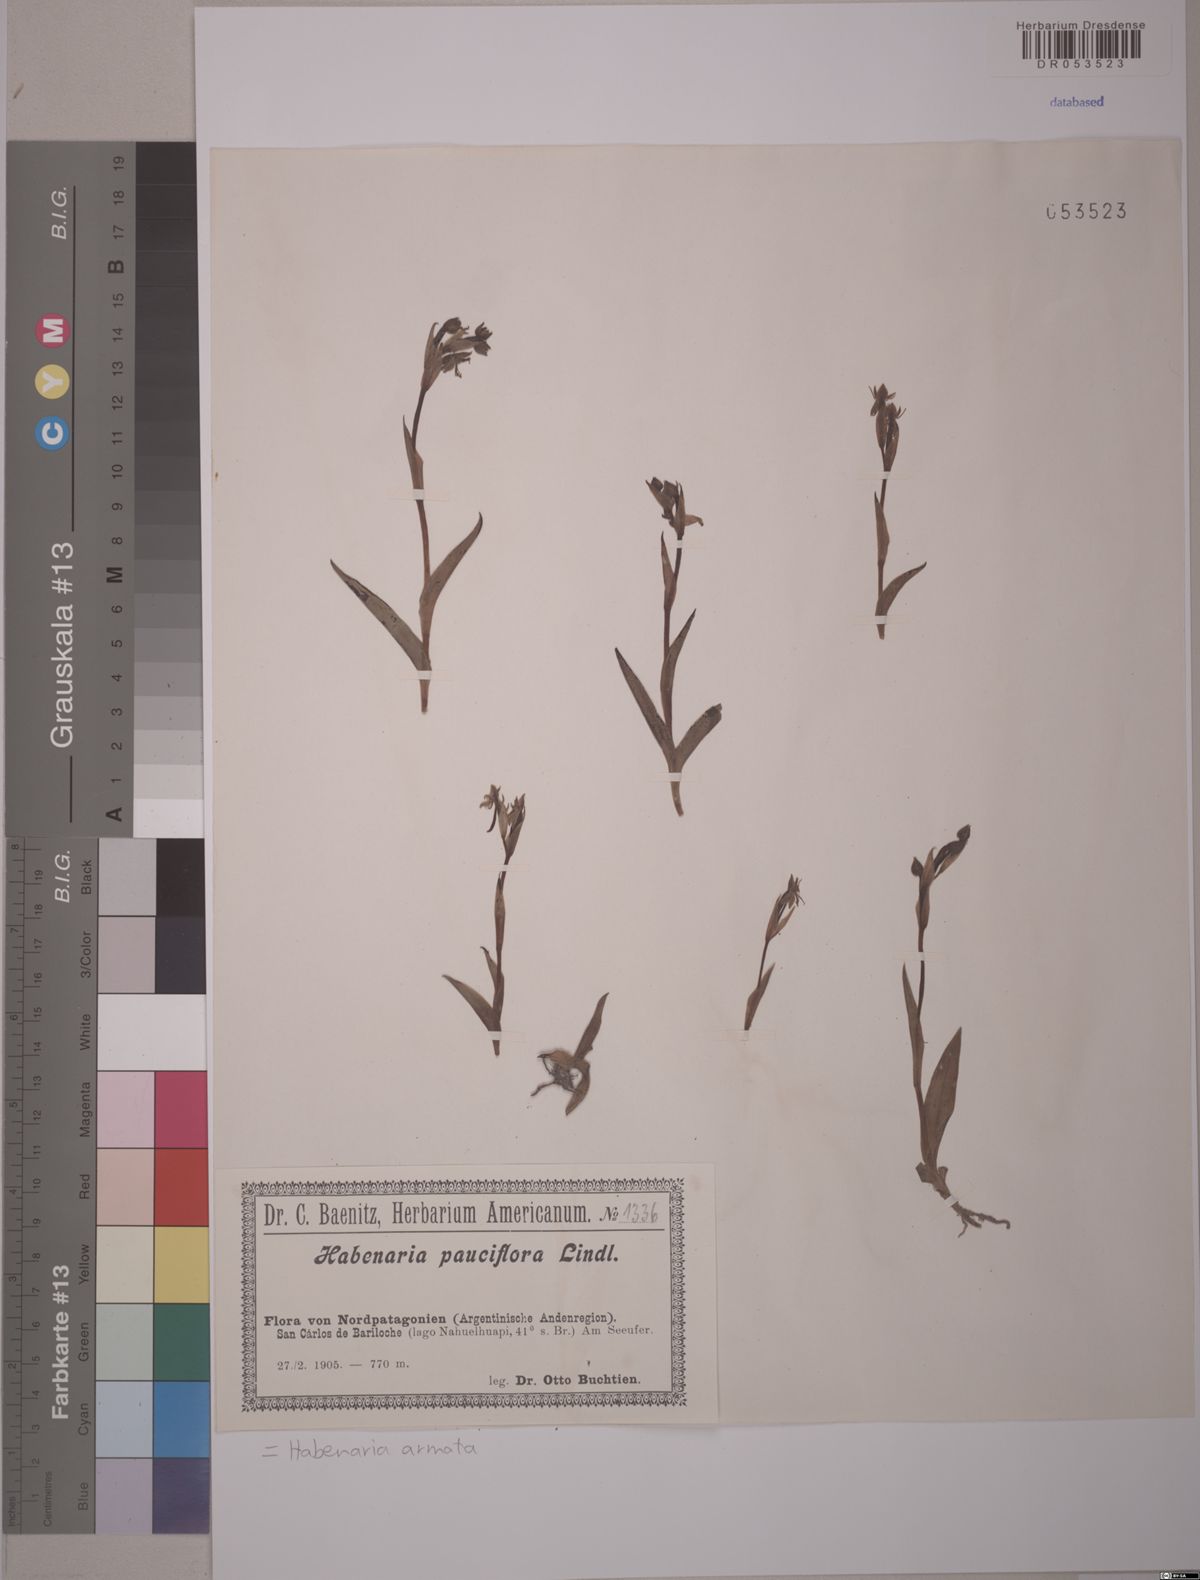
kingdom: Plantae
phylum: Tracheophyta
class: Liliopsida
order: Asparagales
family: Orchidaceae
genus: Habenaria
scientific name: Habenaria armata
